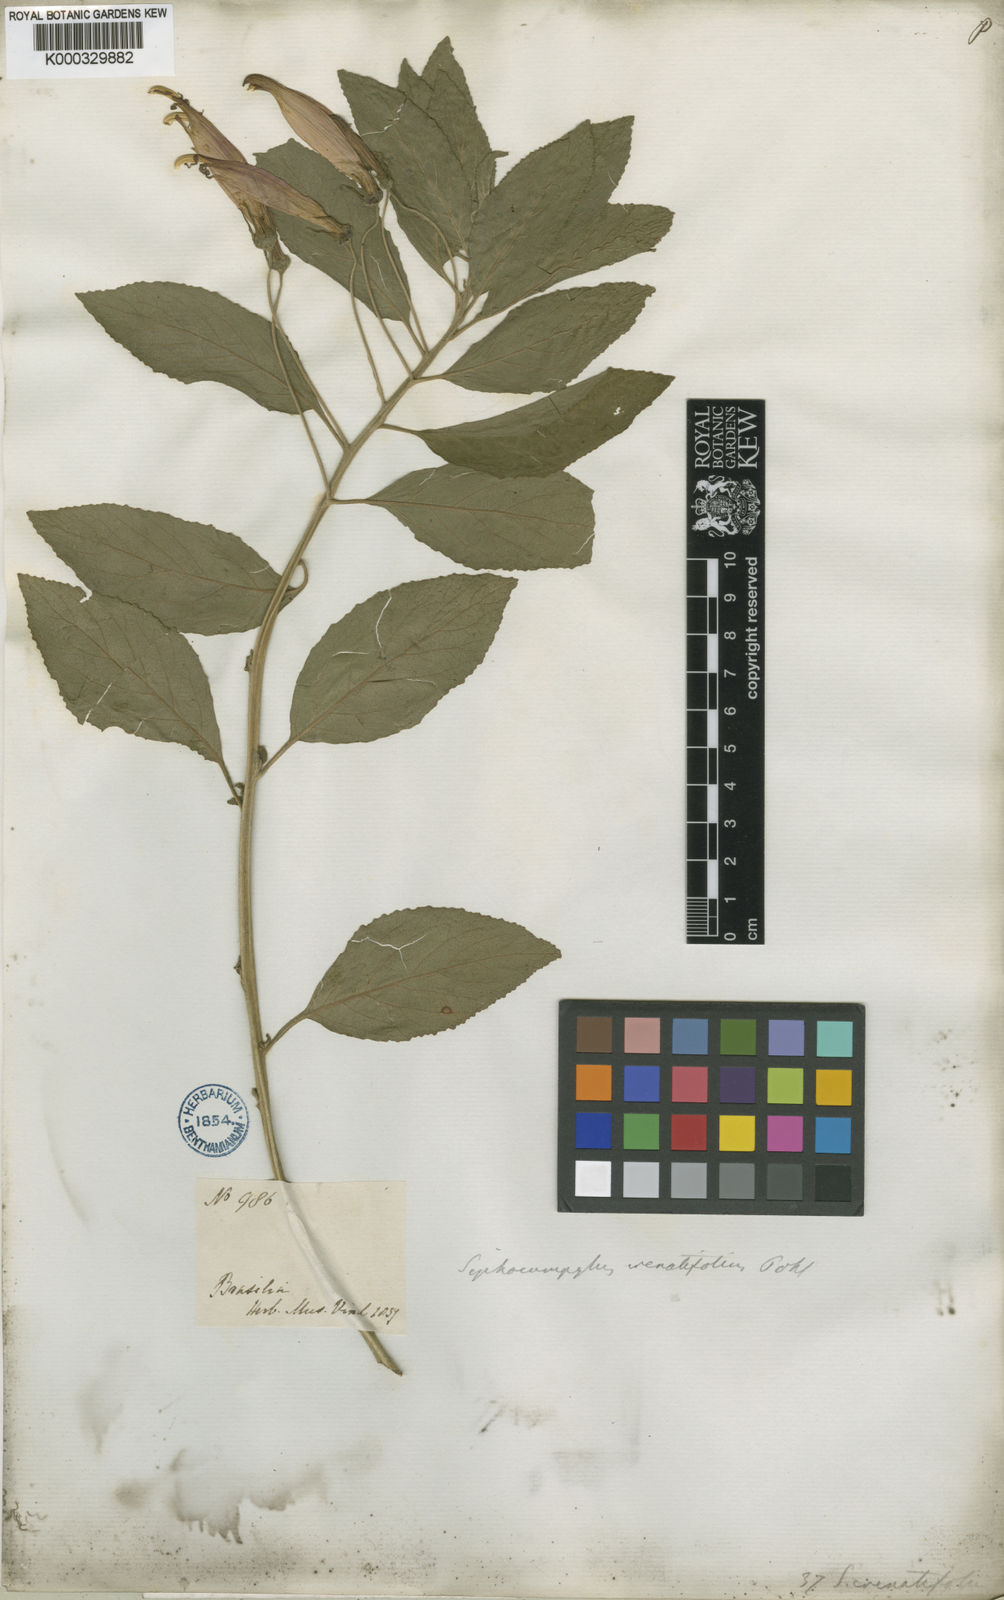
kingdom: Plantae
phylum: Tracheophyta
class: Magnoliopsida
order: Asterales
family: Campanulaceae
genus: Siphocampylus
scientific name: Siphocampylus macropodus
